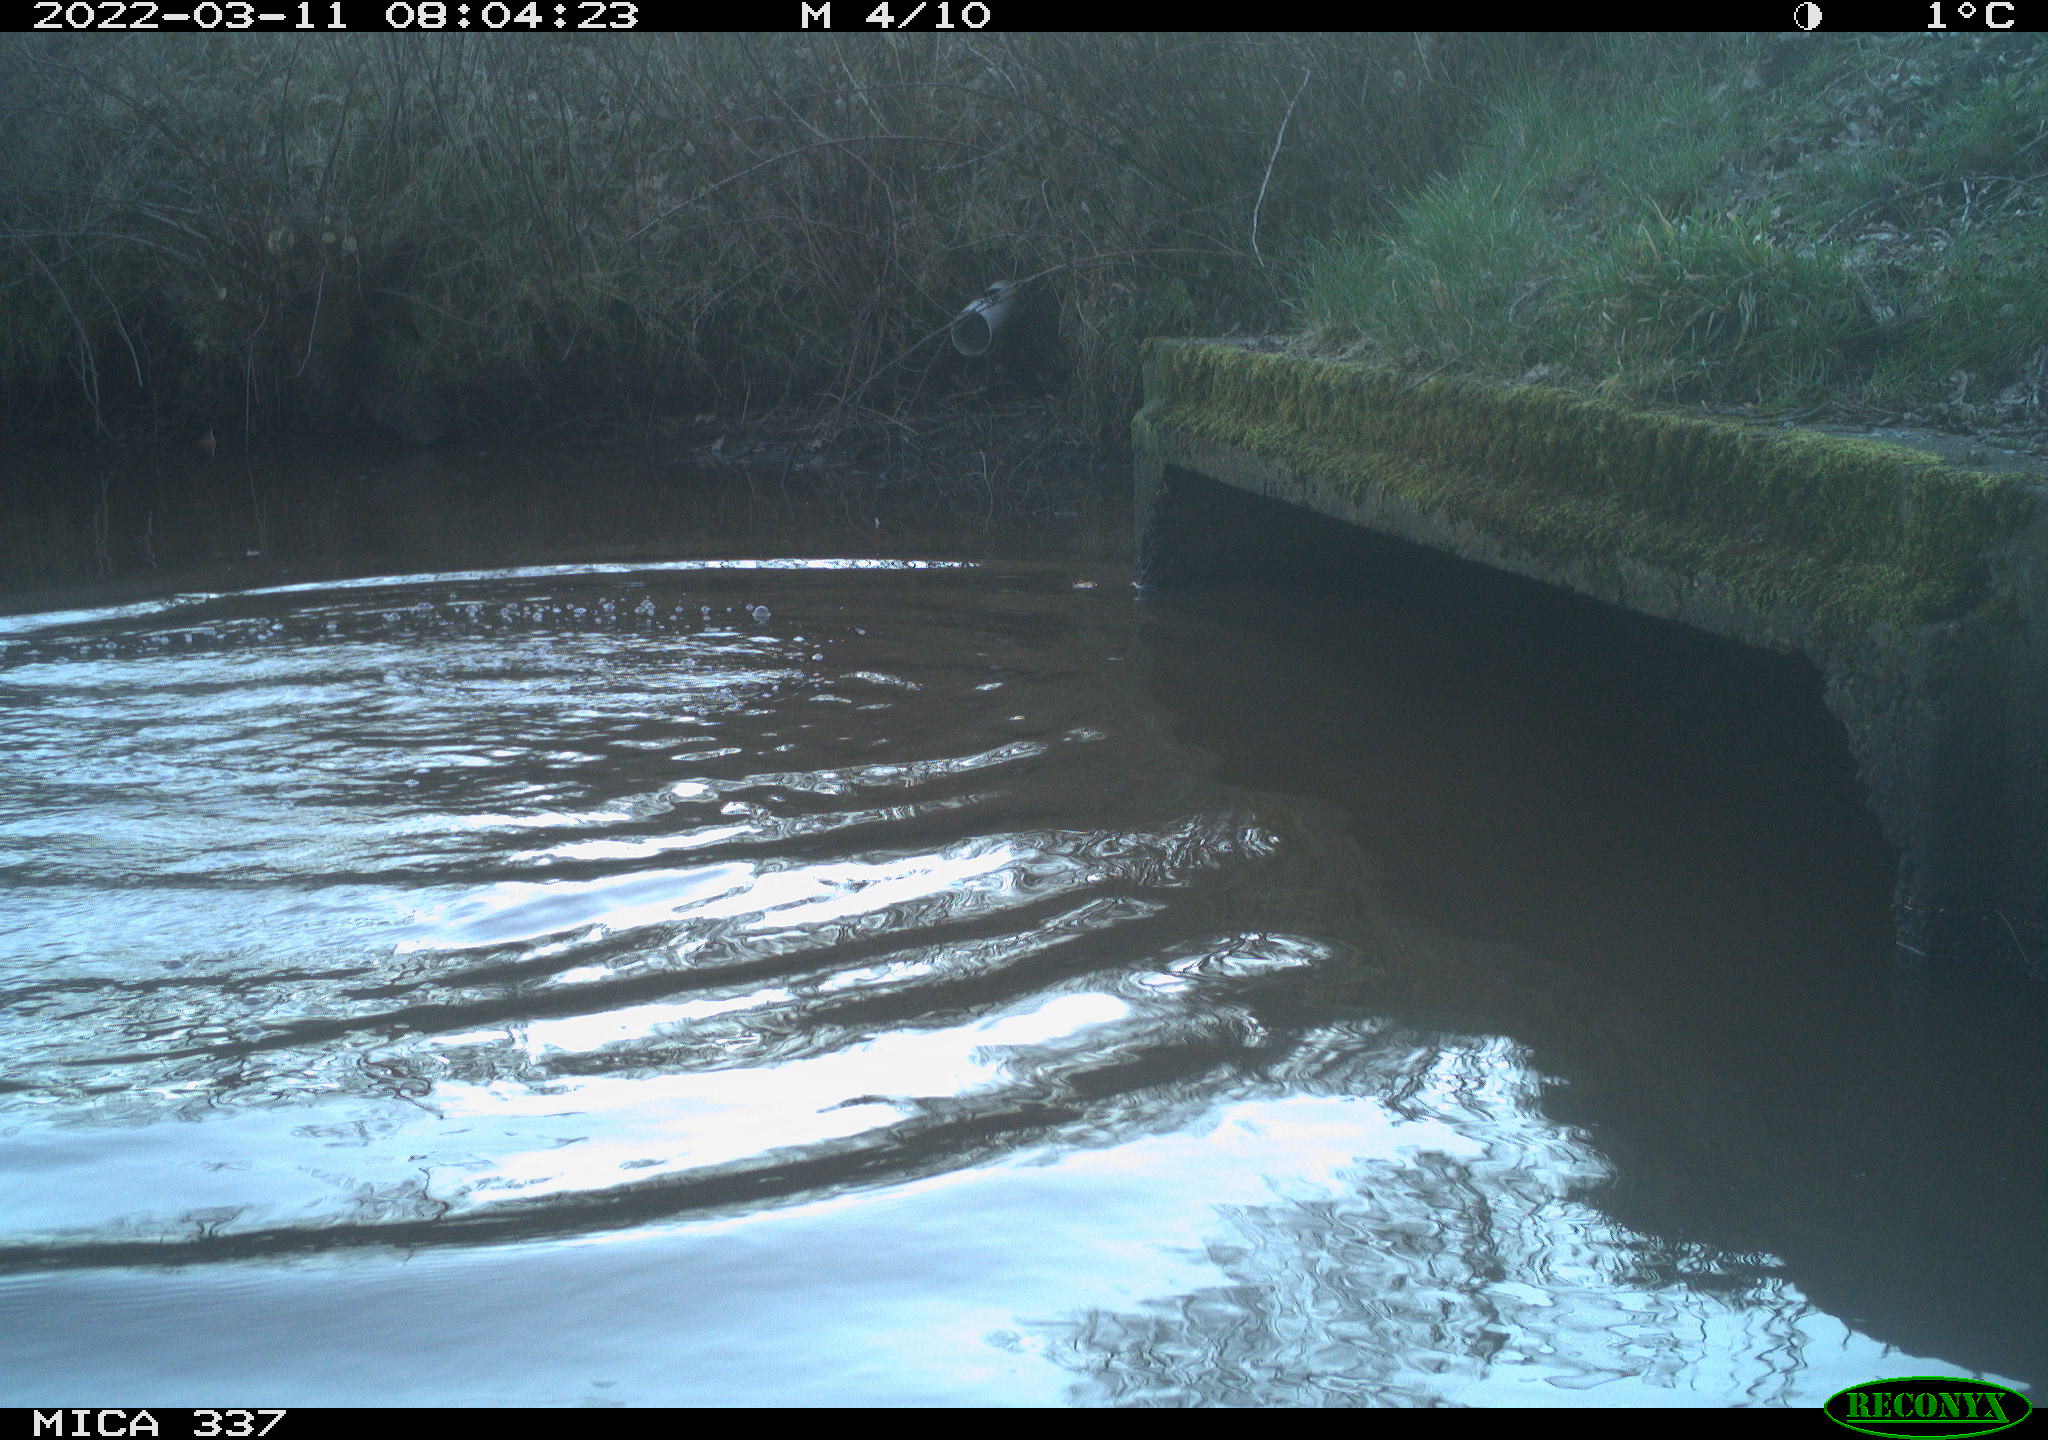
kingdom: Animalia
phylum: Chordata
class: Aves
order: Anseriformes
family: Anatidae
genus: Anas
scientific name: Anas platyrhynchos
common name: Mallard
